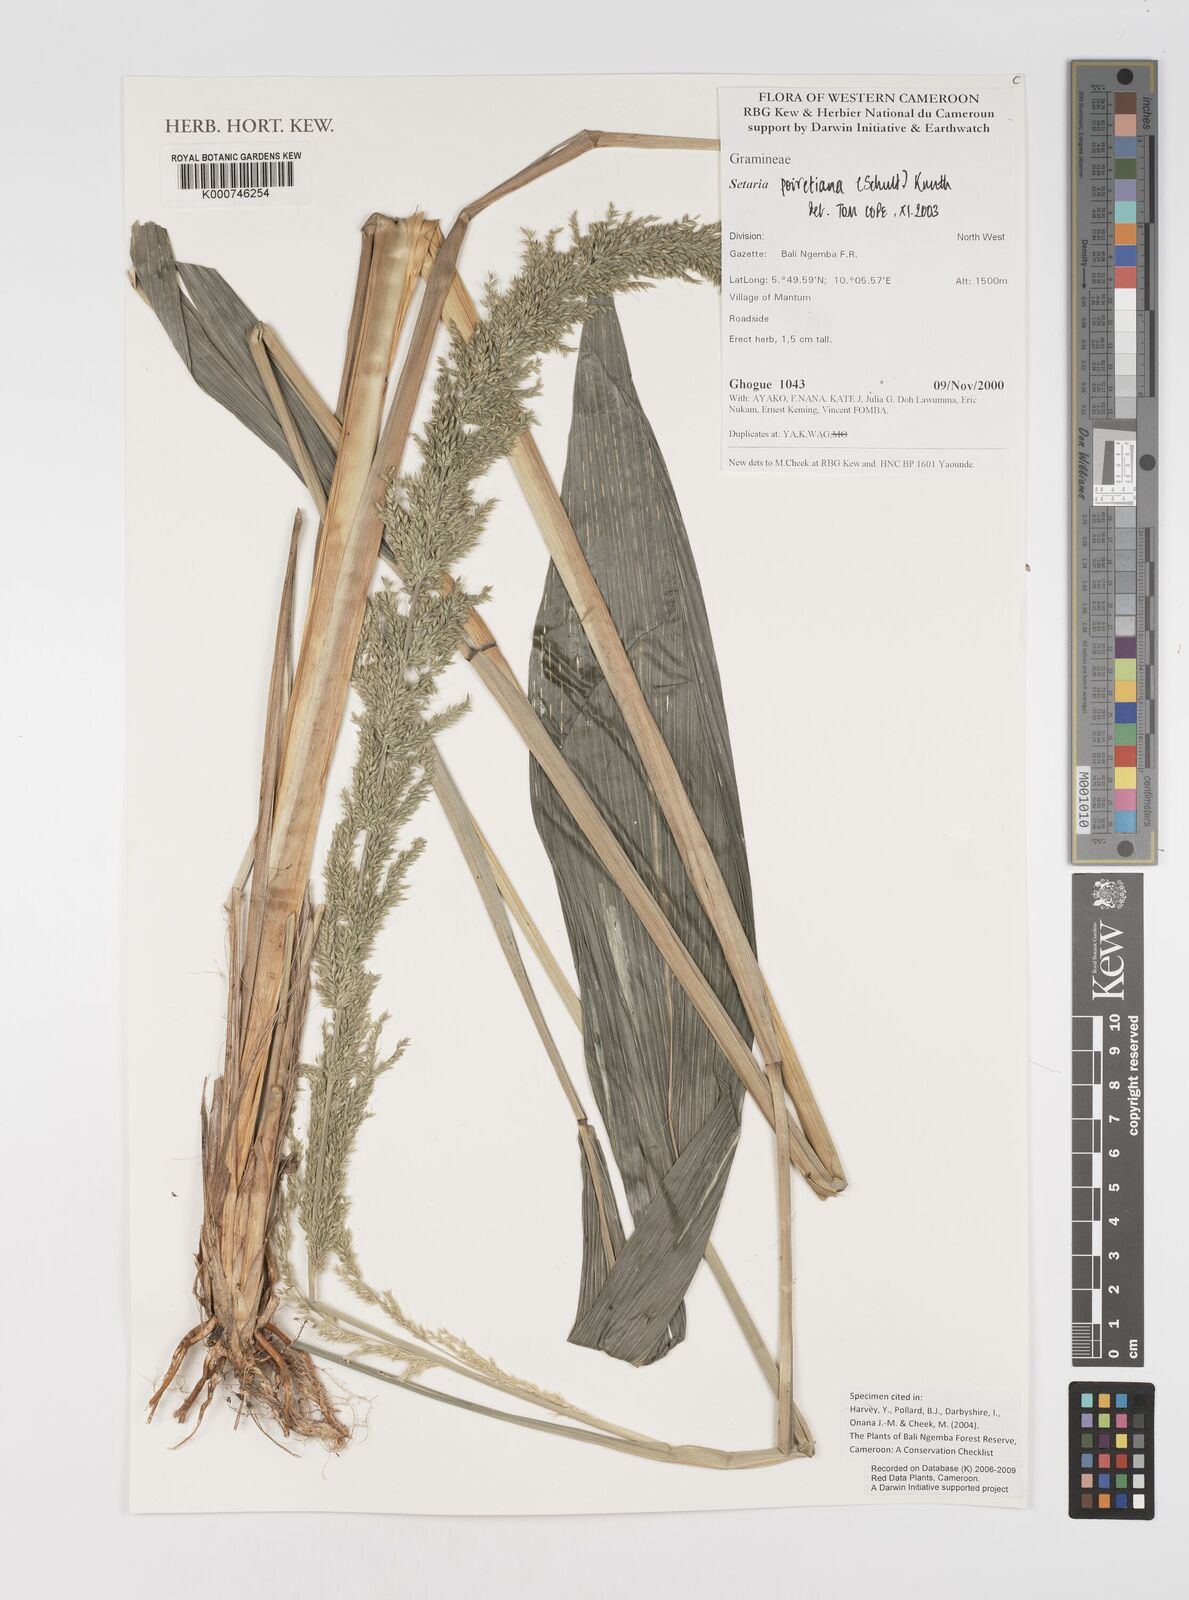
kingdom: Plantae
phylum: Tracheophyta
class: Liliopsida
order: Poales
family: Poaceae
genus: Setaria
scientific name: Setaria poiretiana
